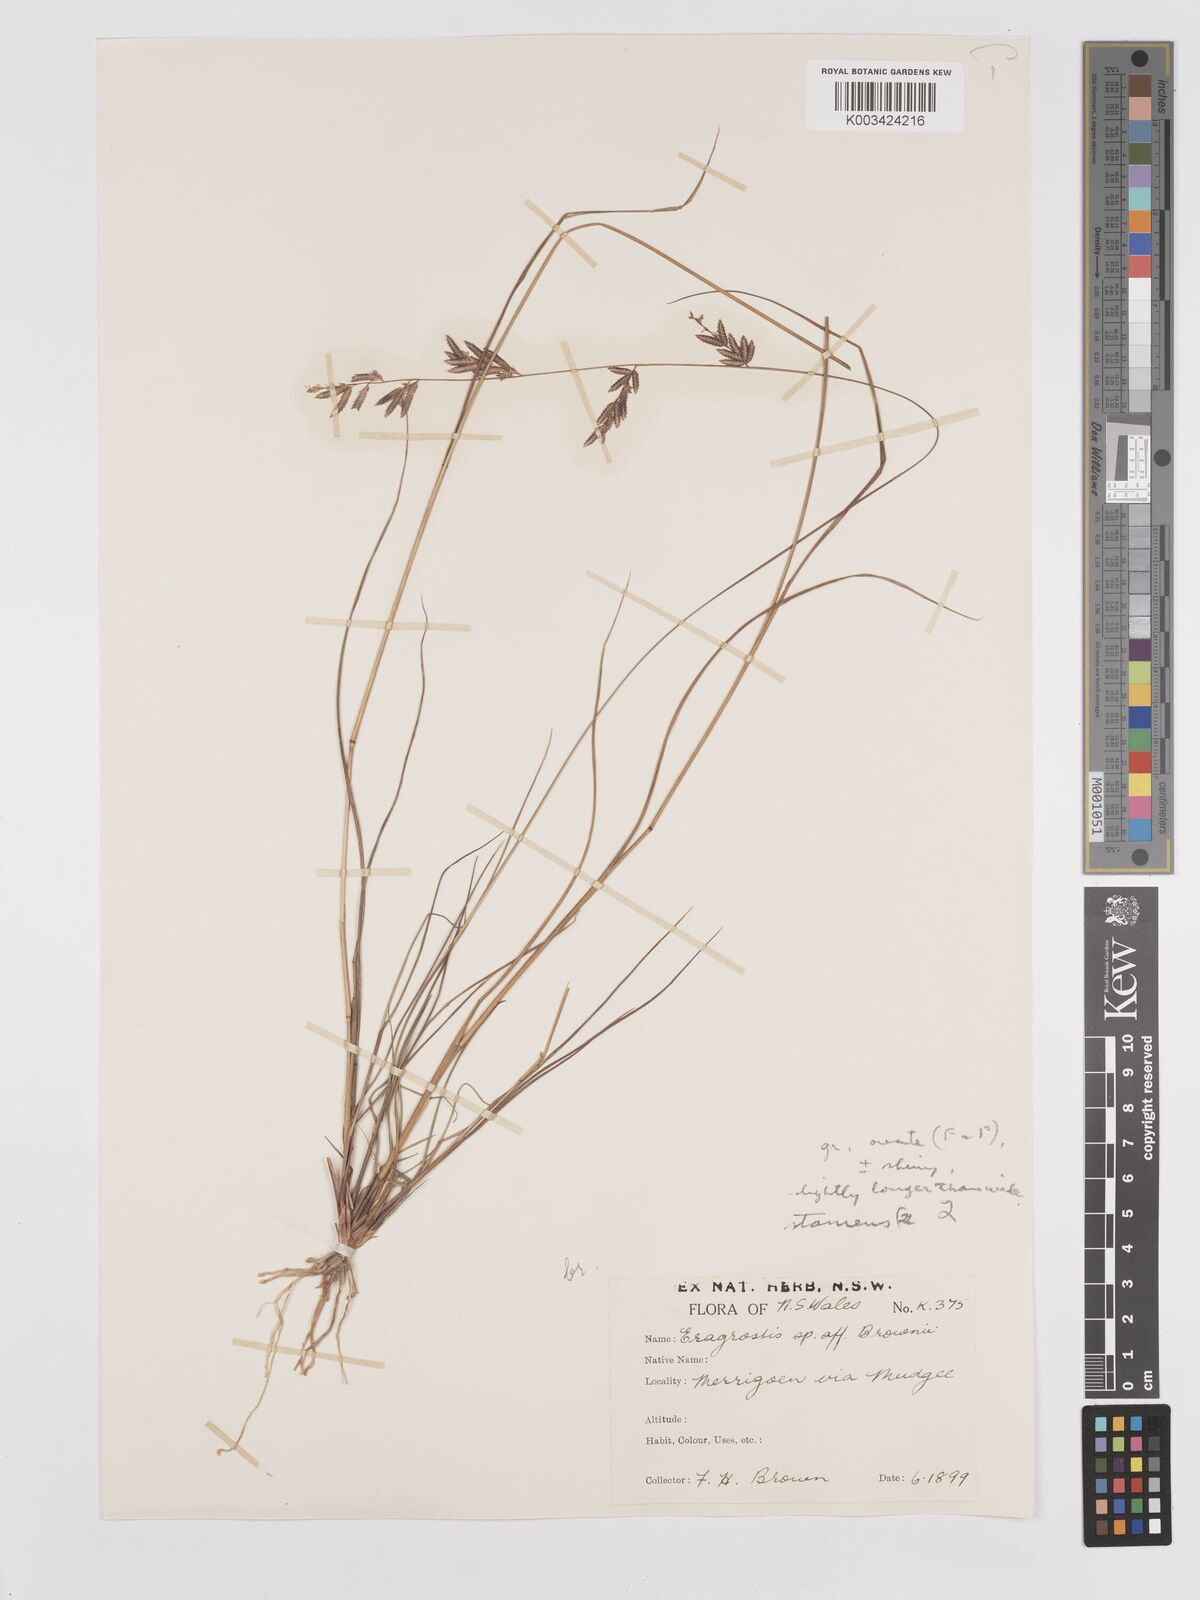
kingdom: Plantae
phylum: Tracheophyta
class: Liliopsida
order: Poales
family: Poaceae
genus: Eragrostis
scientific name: Eragrostis brownii
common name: Lovegrass
